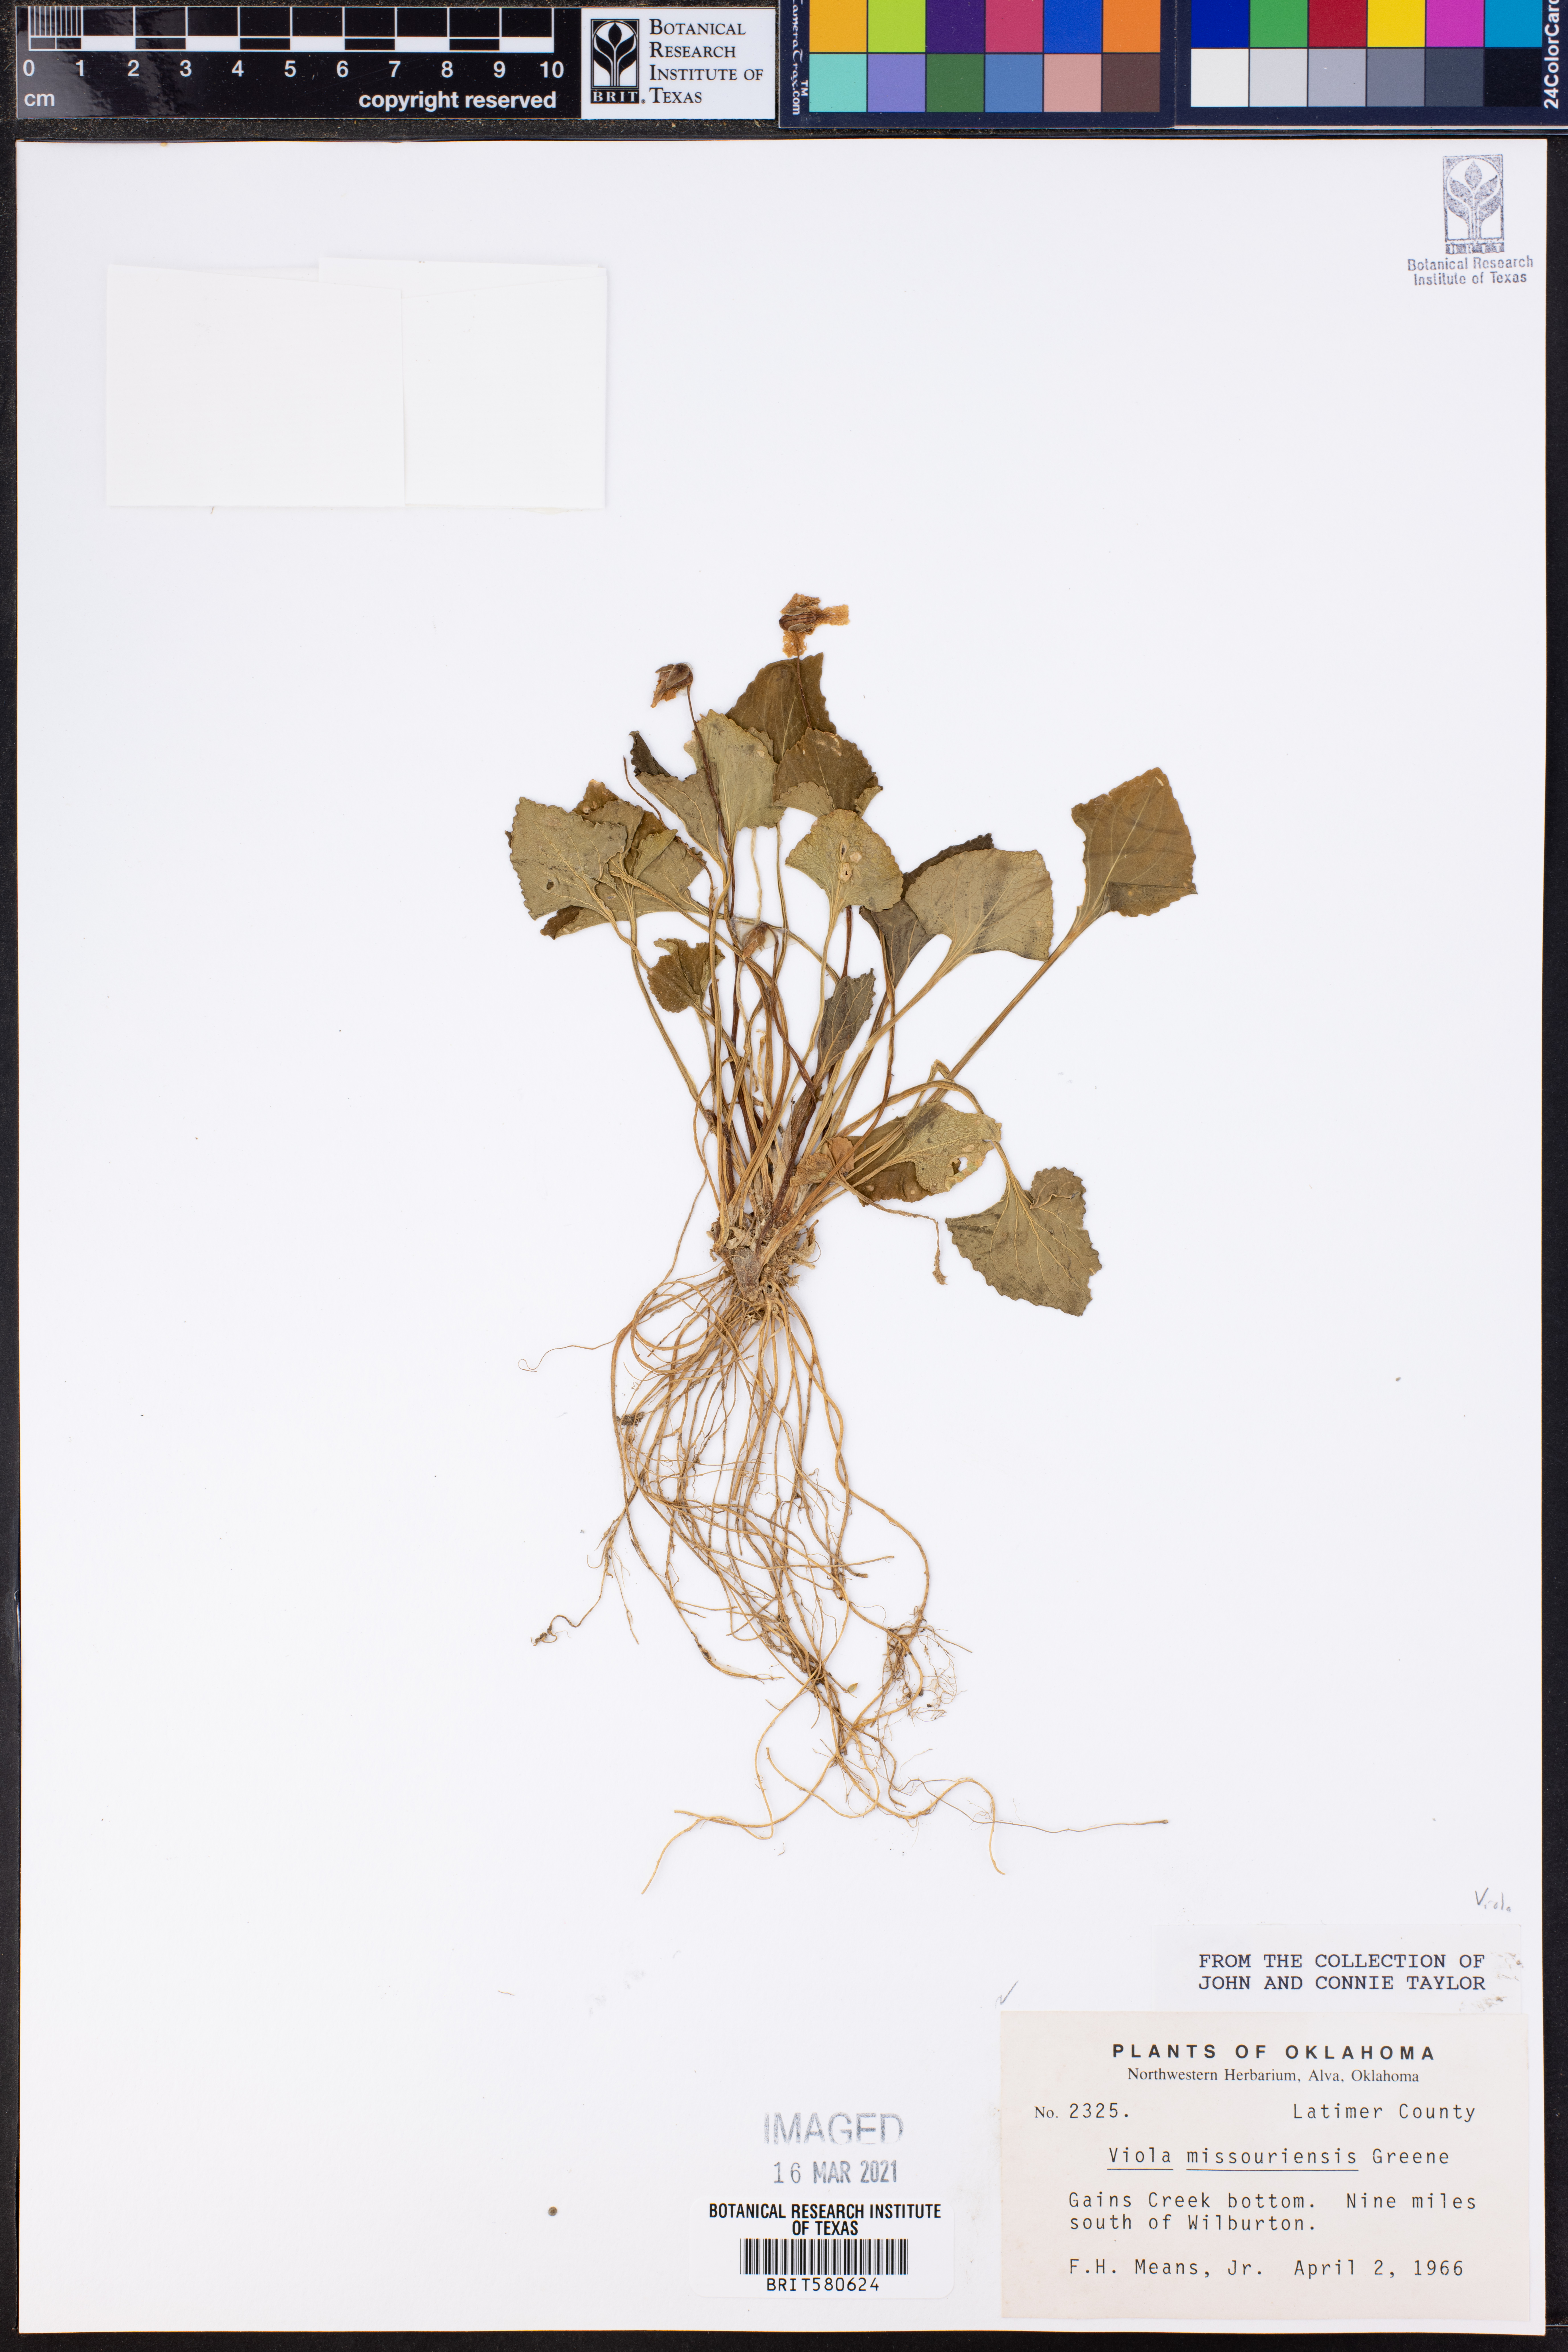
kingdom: Plantae
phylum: Tracheophyta
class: Magnoliopsida
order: Malpighiales
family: Violaceae
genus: Viola
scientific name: Viola missouriensis
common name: Missouri violet
